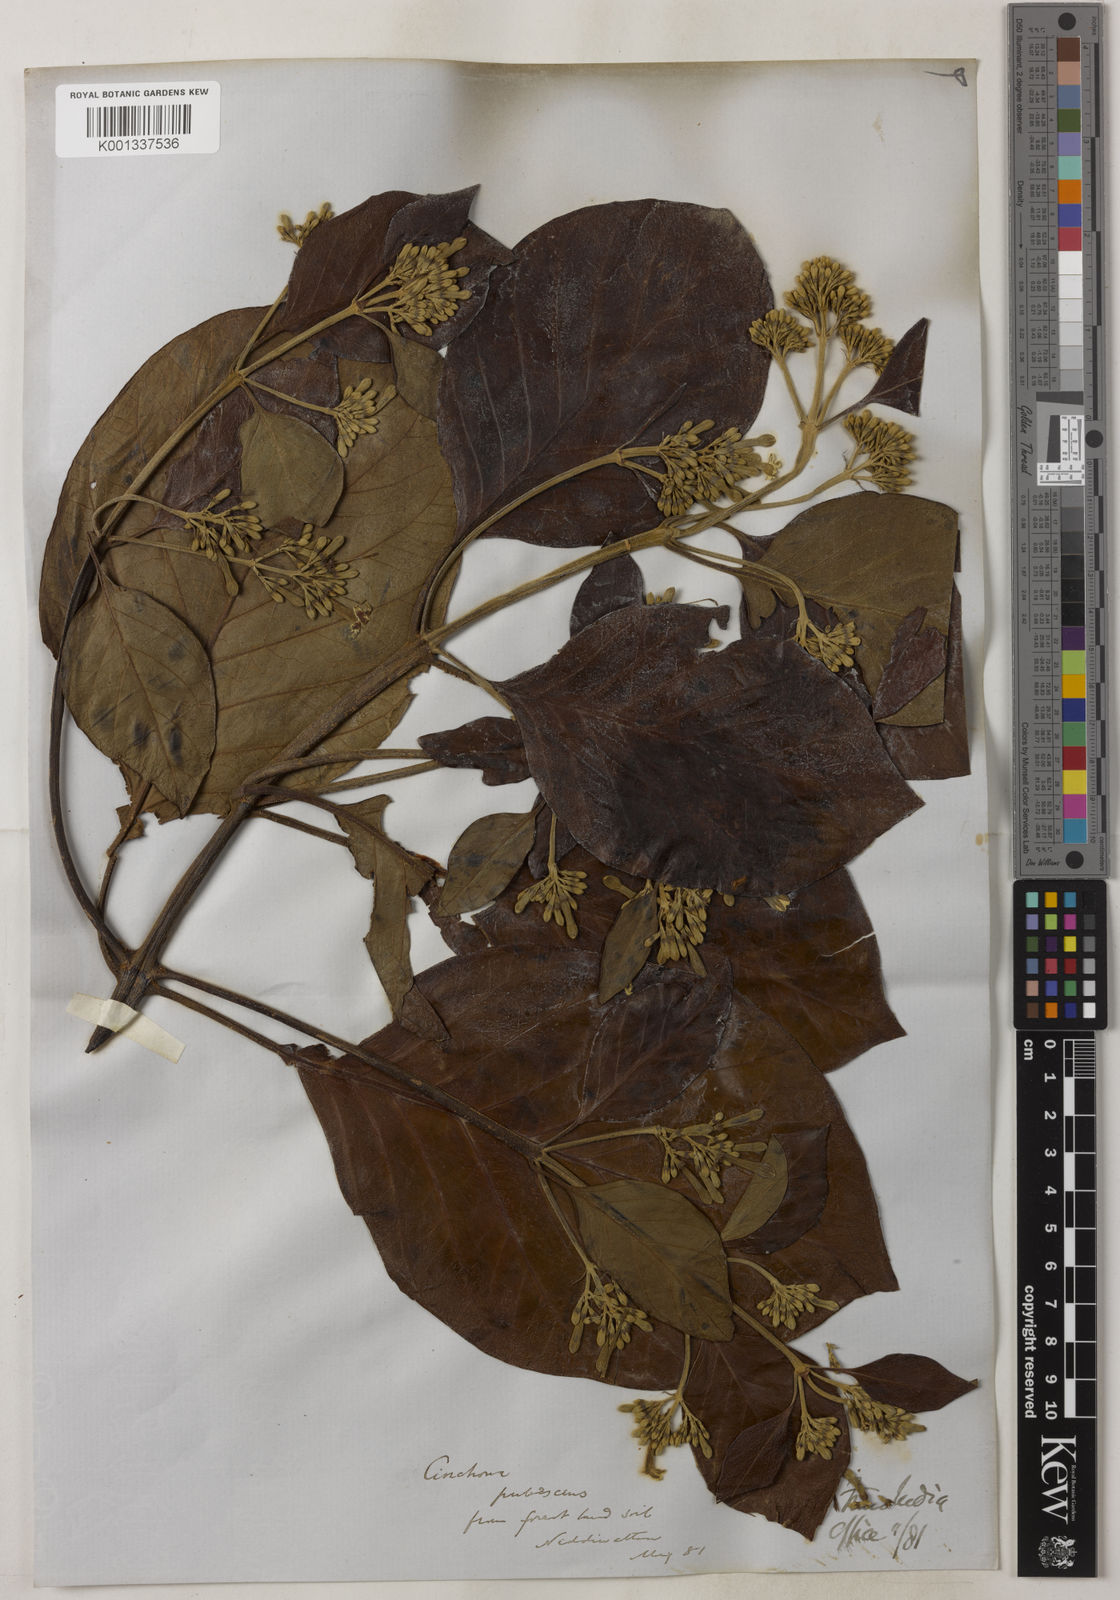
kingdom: Plantae
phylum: Tracheophyta
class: Magnoliopsida
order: Gentianales
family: Rubiaceae
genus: Cinchona
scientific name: Cinchona calisaya
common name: Ledgerbark
